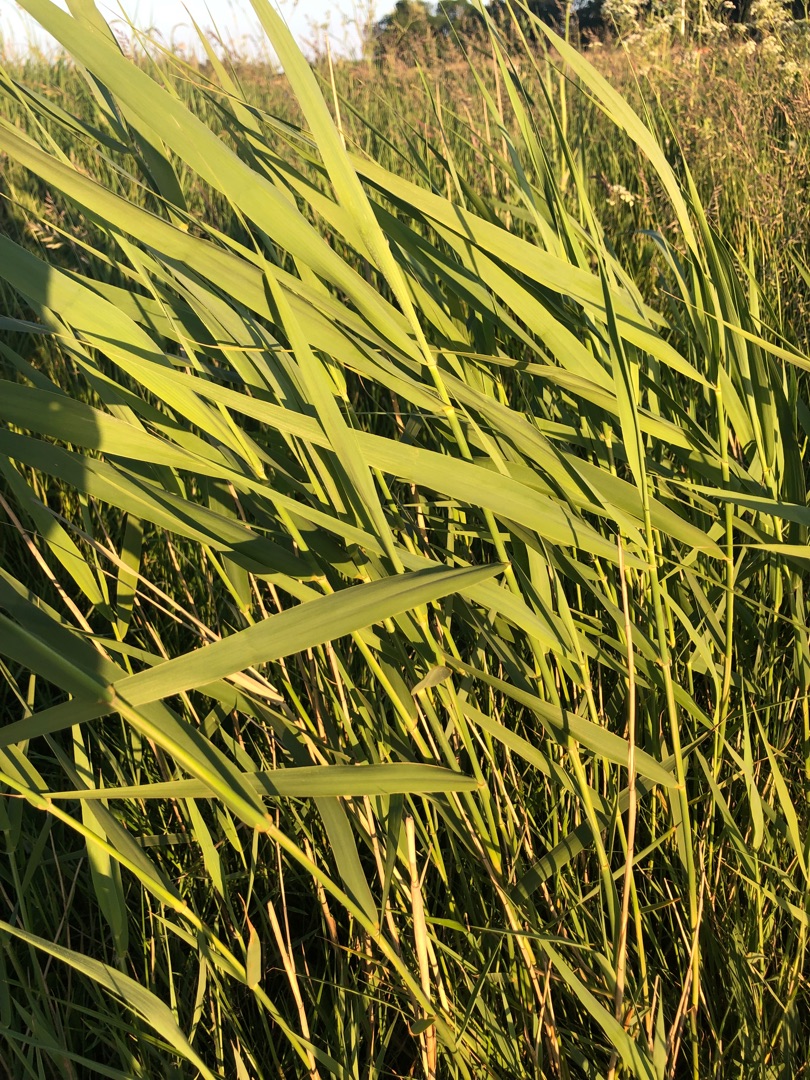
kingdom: Plantae
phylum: Tracheophyta
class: Liliopsida
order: Poales
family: Poaceae
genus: Phragmites
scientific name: Phragmites australis
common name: Tagrør
